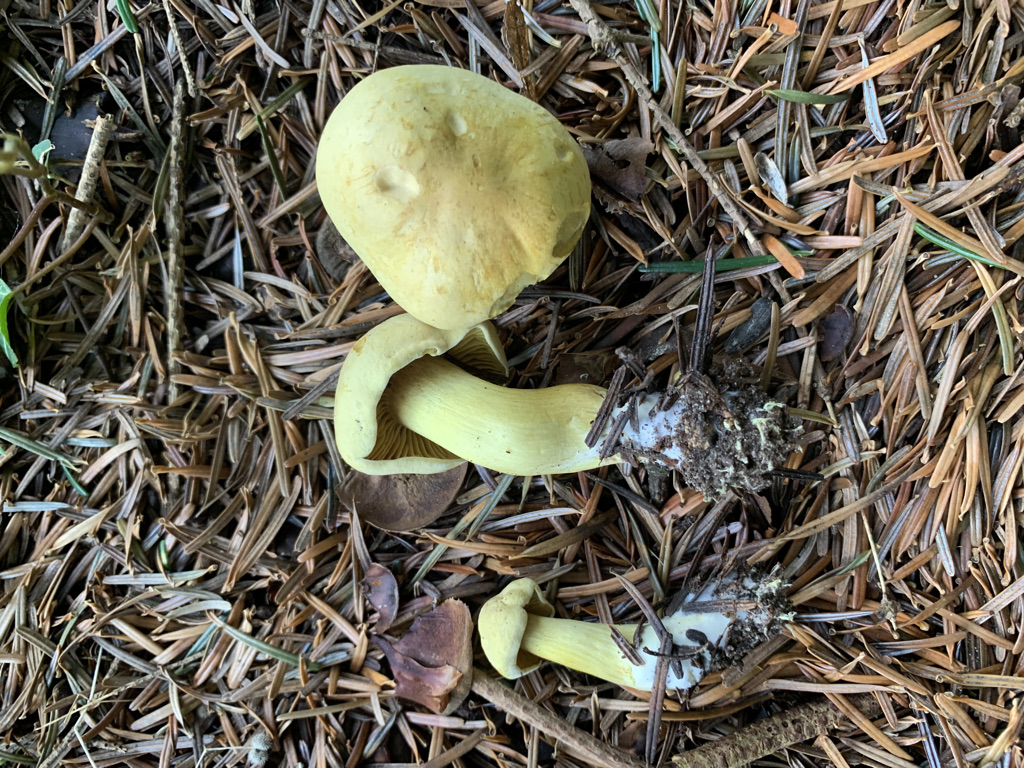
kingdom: Fungi
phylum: Basidiomycota
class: Agaricomycetes
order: Agaricales
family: Tricholomataceae
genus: Tricholoma
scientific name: Tricholoma sulphureum
